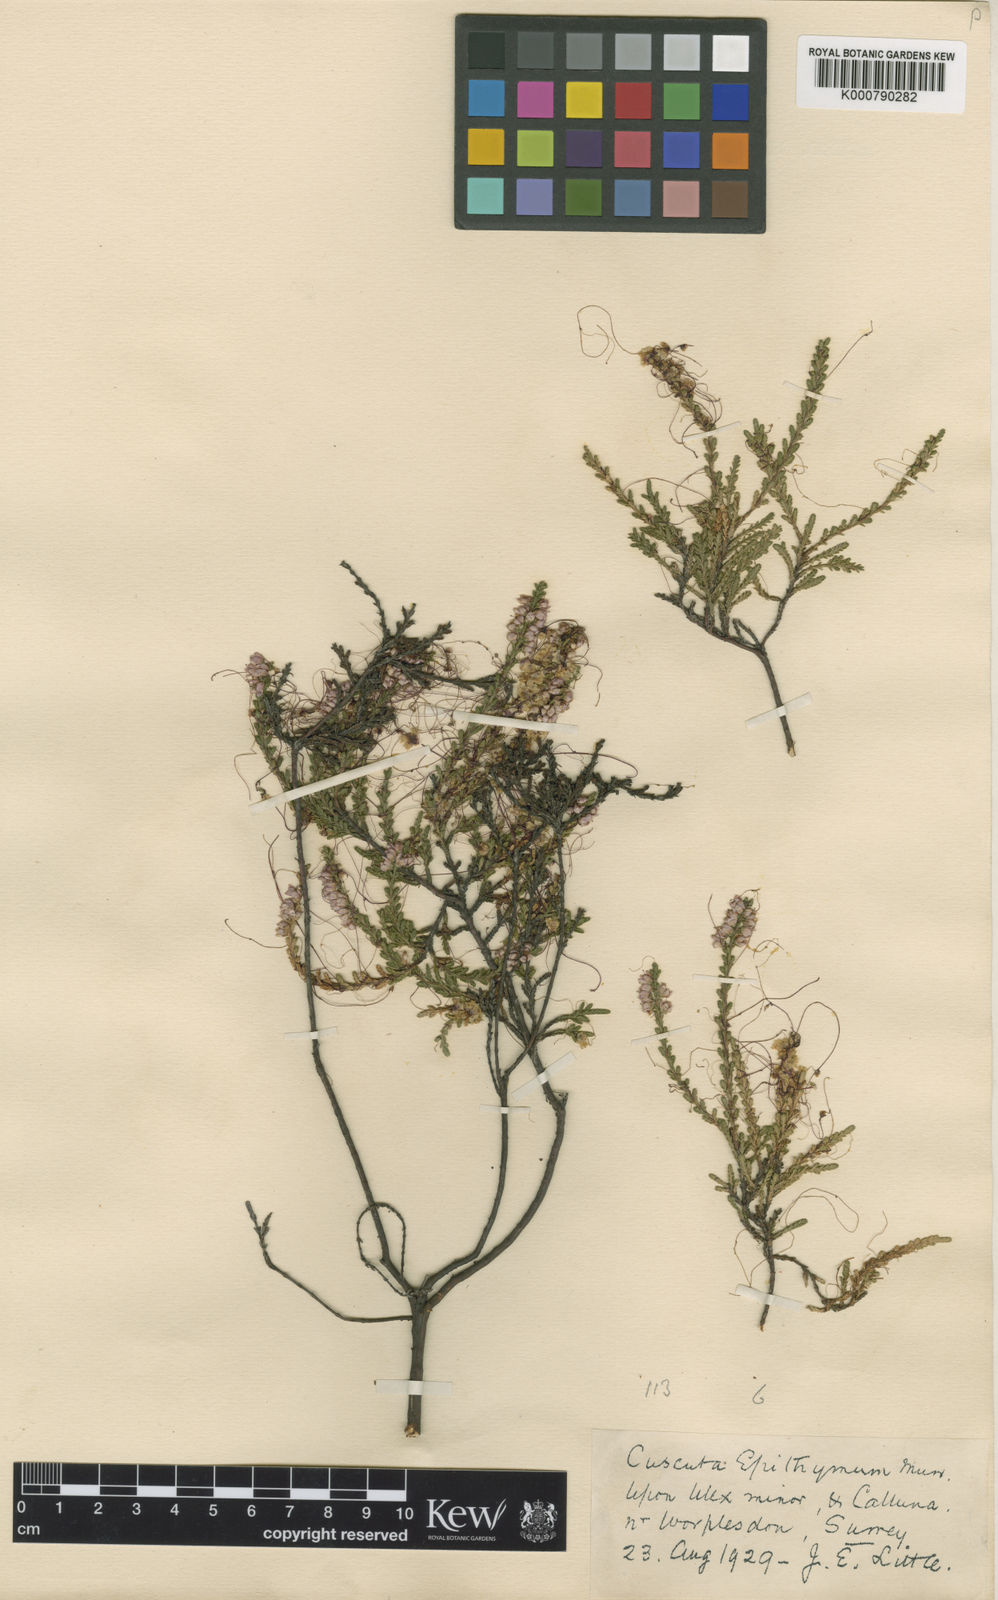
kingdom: Plantae
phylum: Tracheophyta
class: Magnoliopsida
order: Solanales
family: Convolvulaceae
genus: Cuscuta
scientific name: Cuscuta epithymum
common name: Clover dodder
